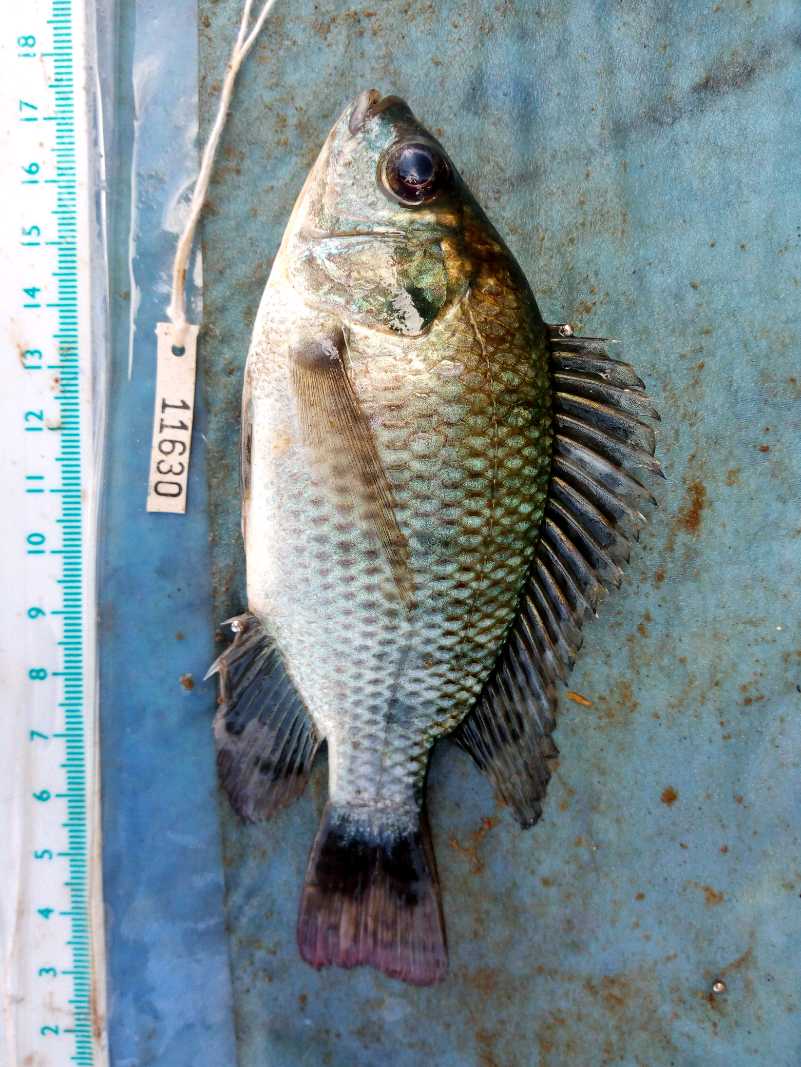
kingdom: Animalia
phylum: Chordata
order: Perciformes
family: Cichlidae
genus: Oreochromis
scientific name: Oreochromis niloticus
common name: Nile tilapia
